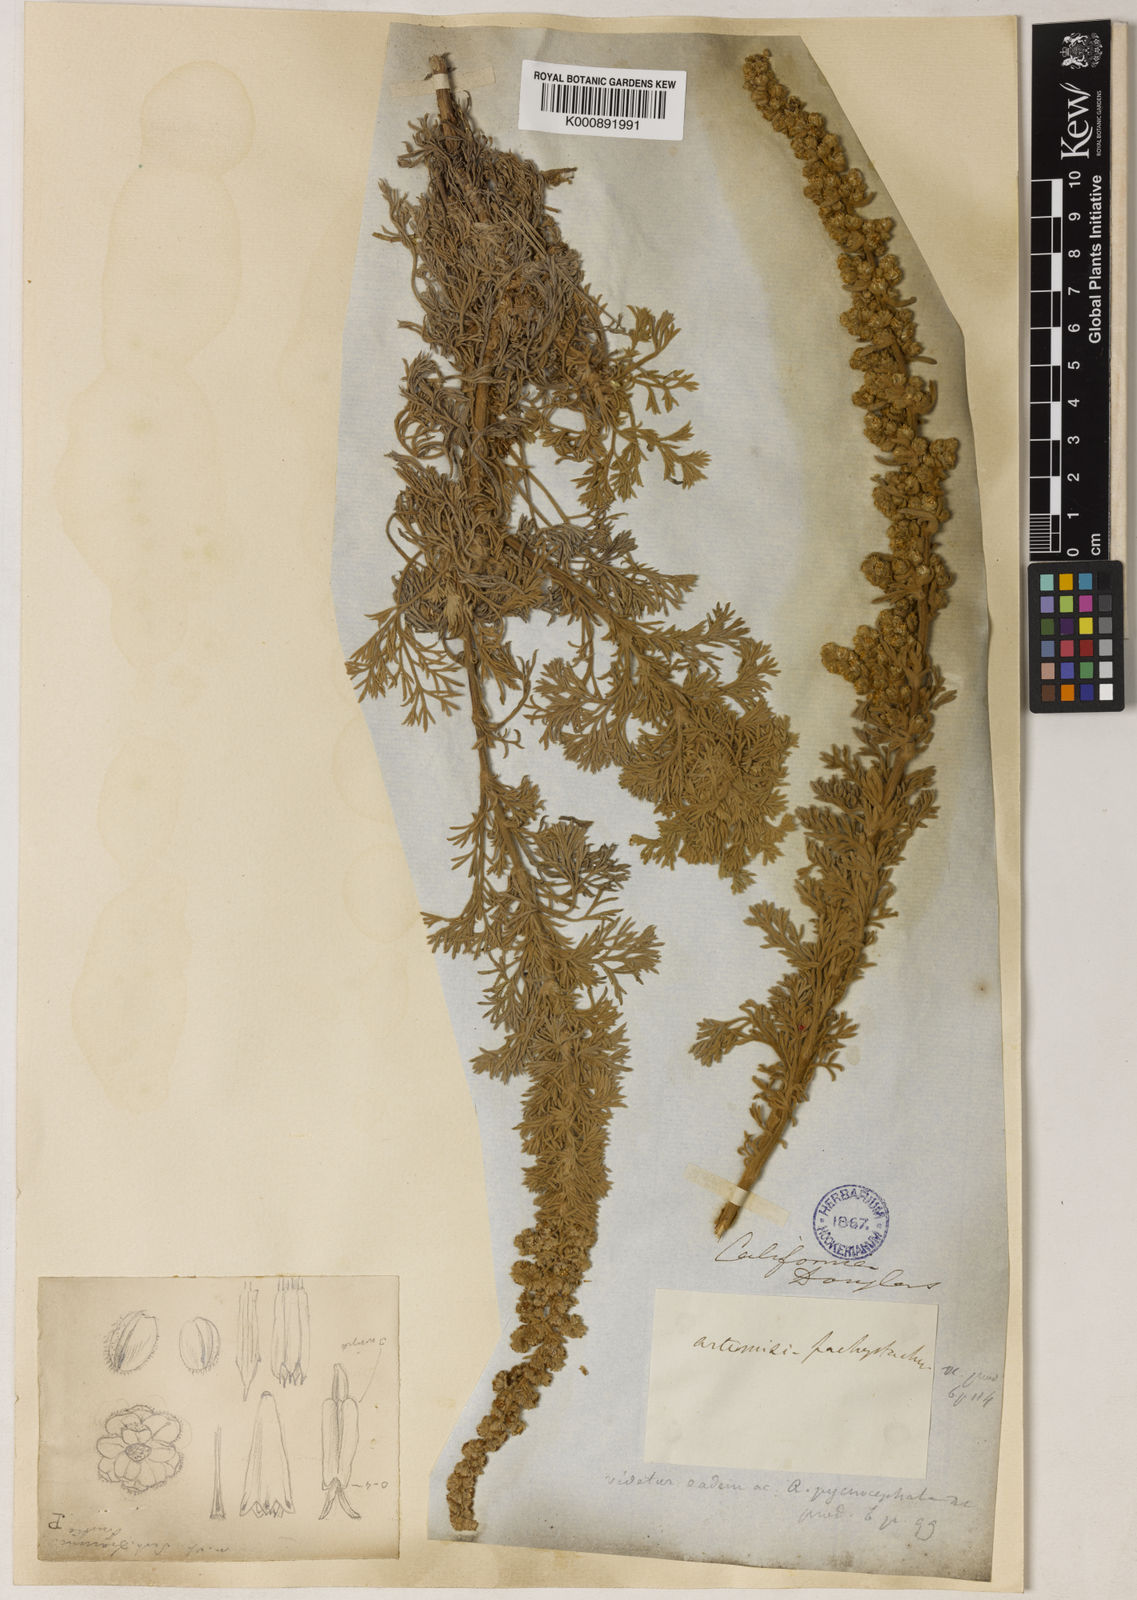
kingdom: Plantae
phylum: Tracheophyta
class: Magnoliopsida
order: Asterales
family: Asteraceae
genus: Artemisia
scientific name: Artemisia pycnocephala
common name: Coastal sagewort
